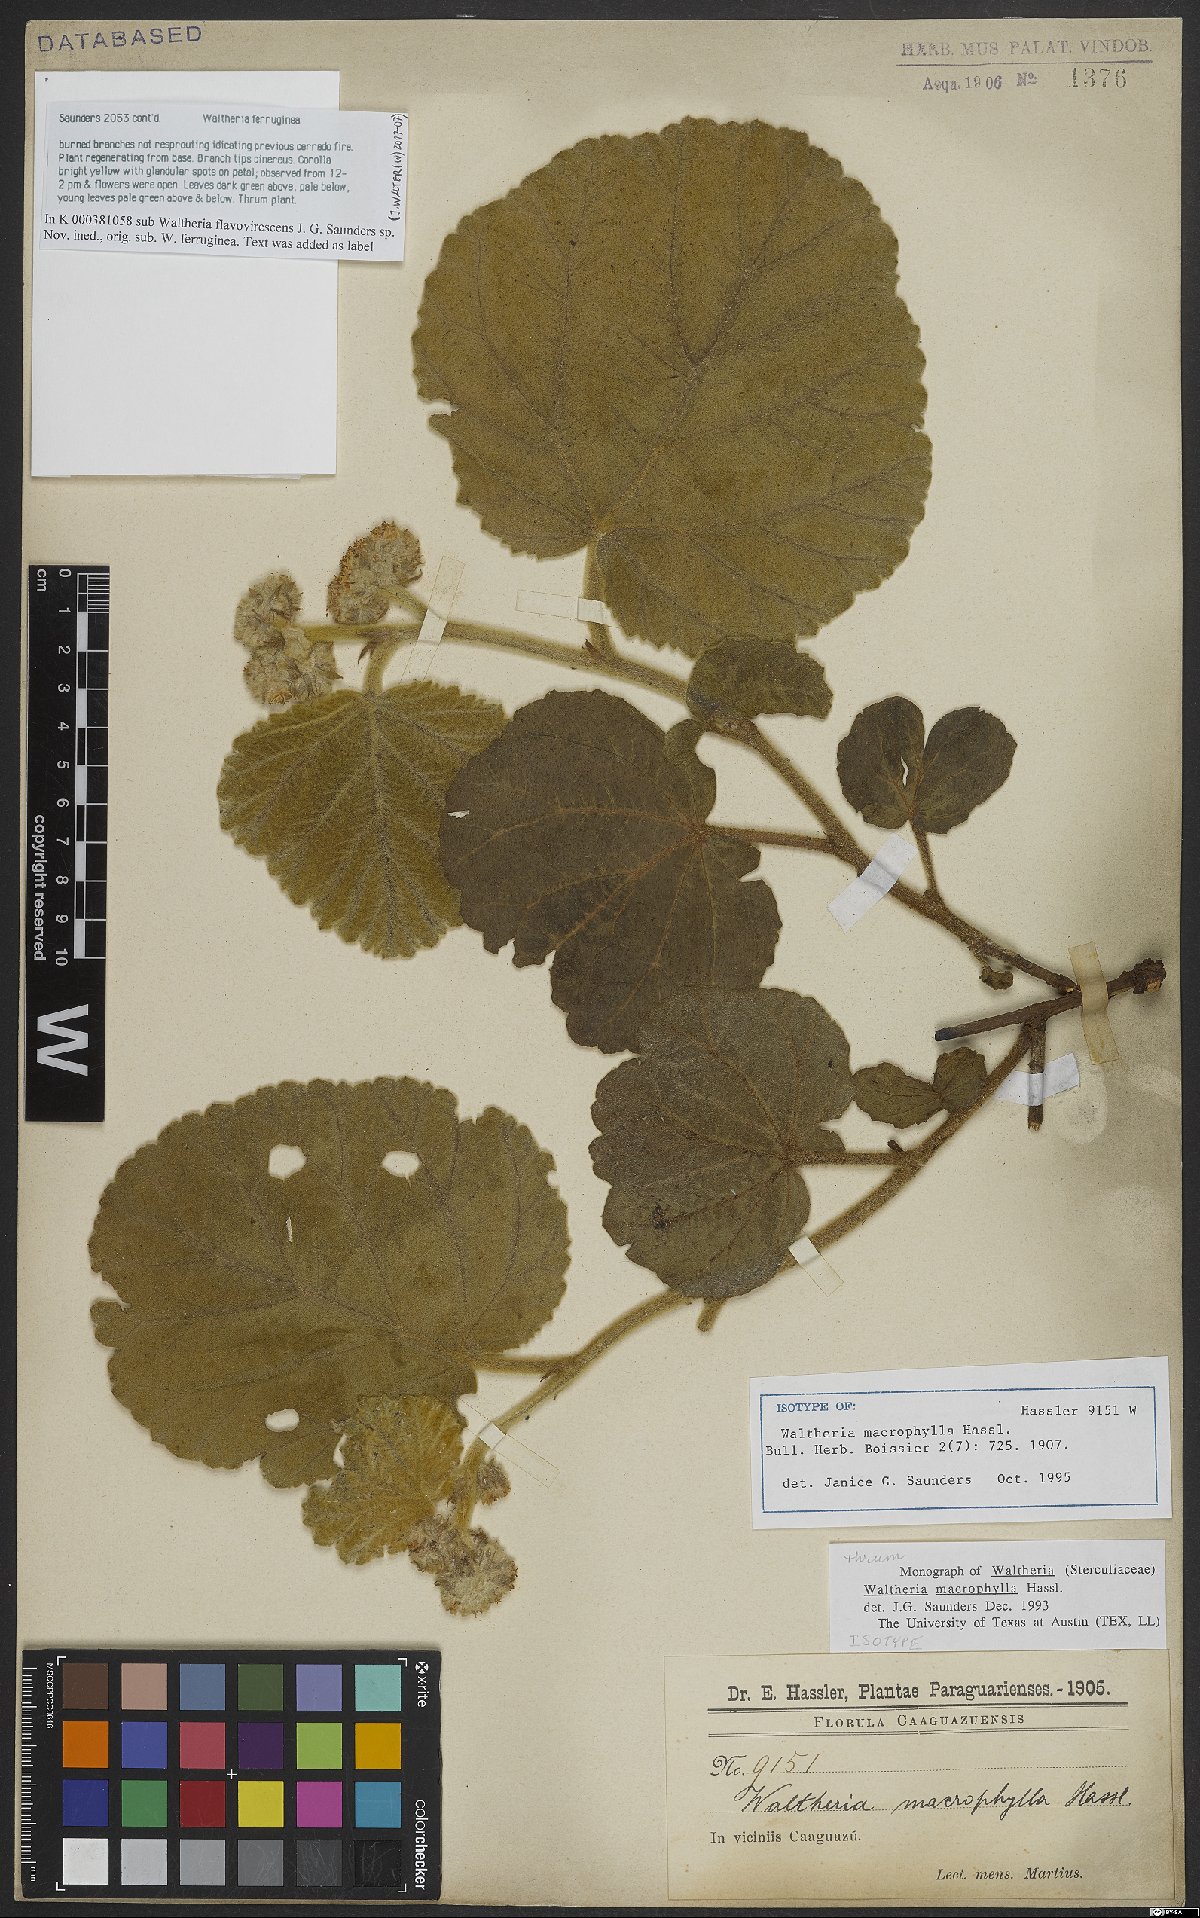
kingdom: Plantae
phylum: Tracheophyta
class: Magnoliopsida
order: Malvales
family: Malvaceae
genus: Waltheria
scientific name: Waltheria macrophylla
